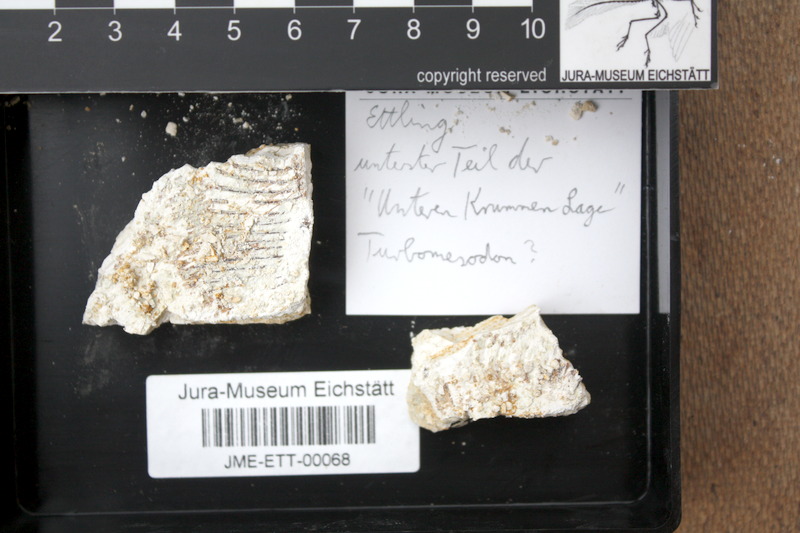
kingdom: Animalia
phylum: Chordata
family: Pycnodontidae
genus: Turbomesodon
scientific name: Turbomesodon relegans
